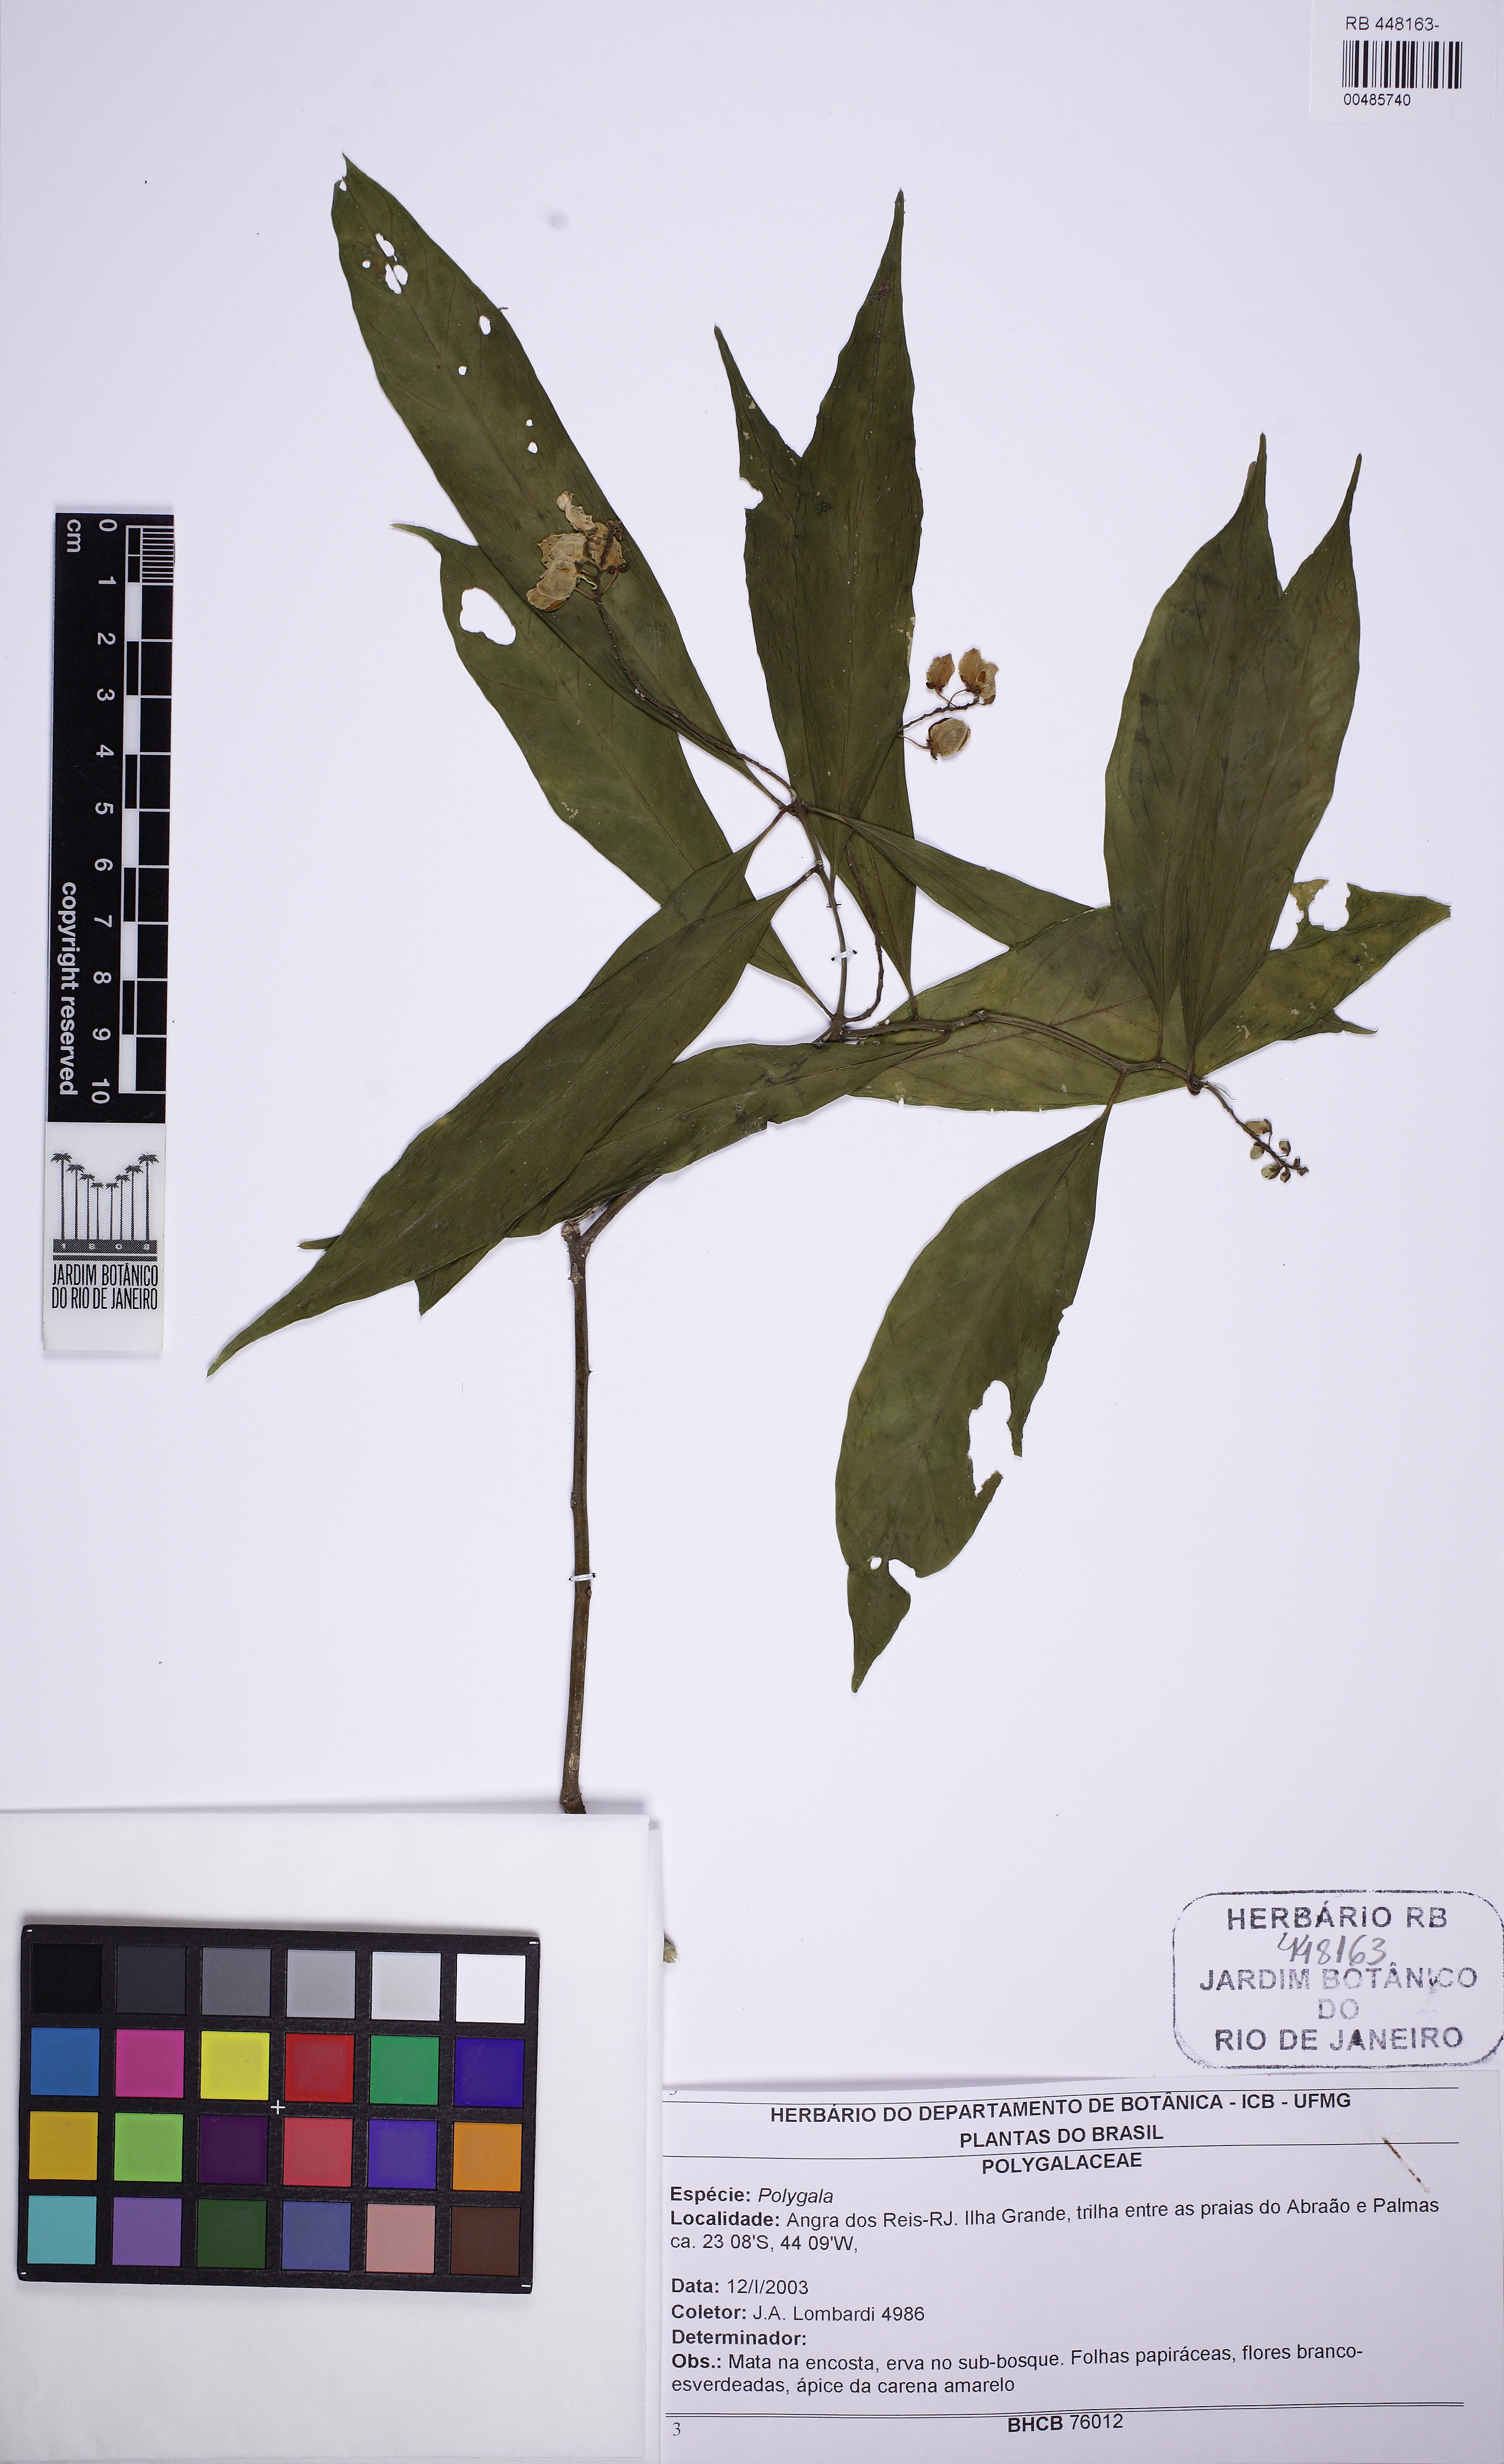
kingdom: Plantae
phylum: Tracheophyta
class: Magnoliopsida
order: Fabales
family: Polygalaceae
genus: Caamembeca
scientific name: Caamembeca
